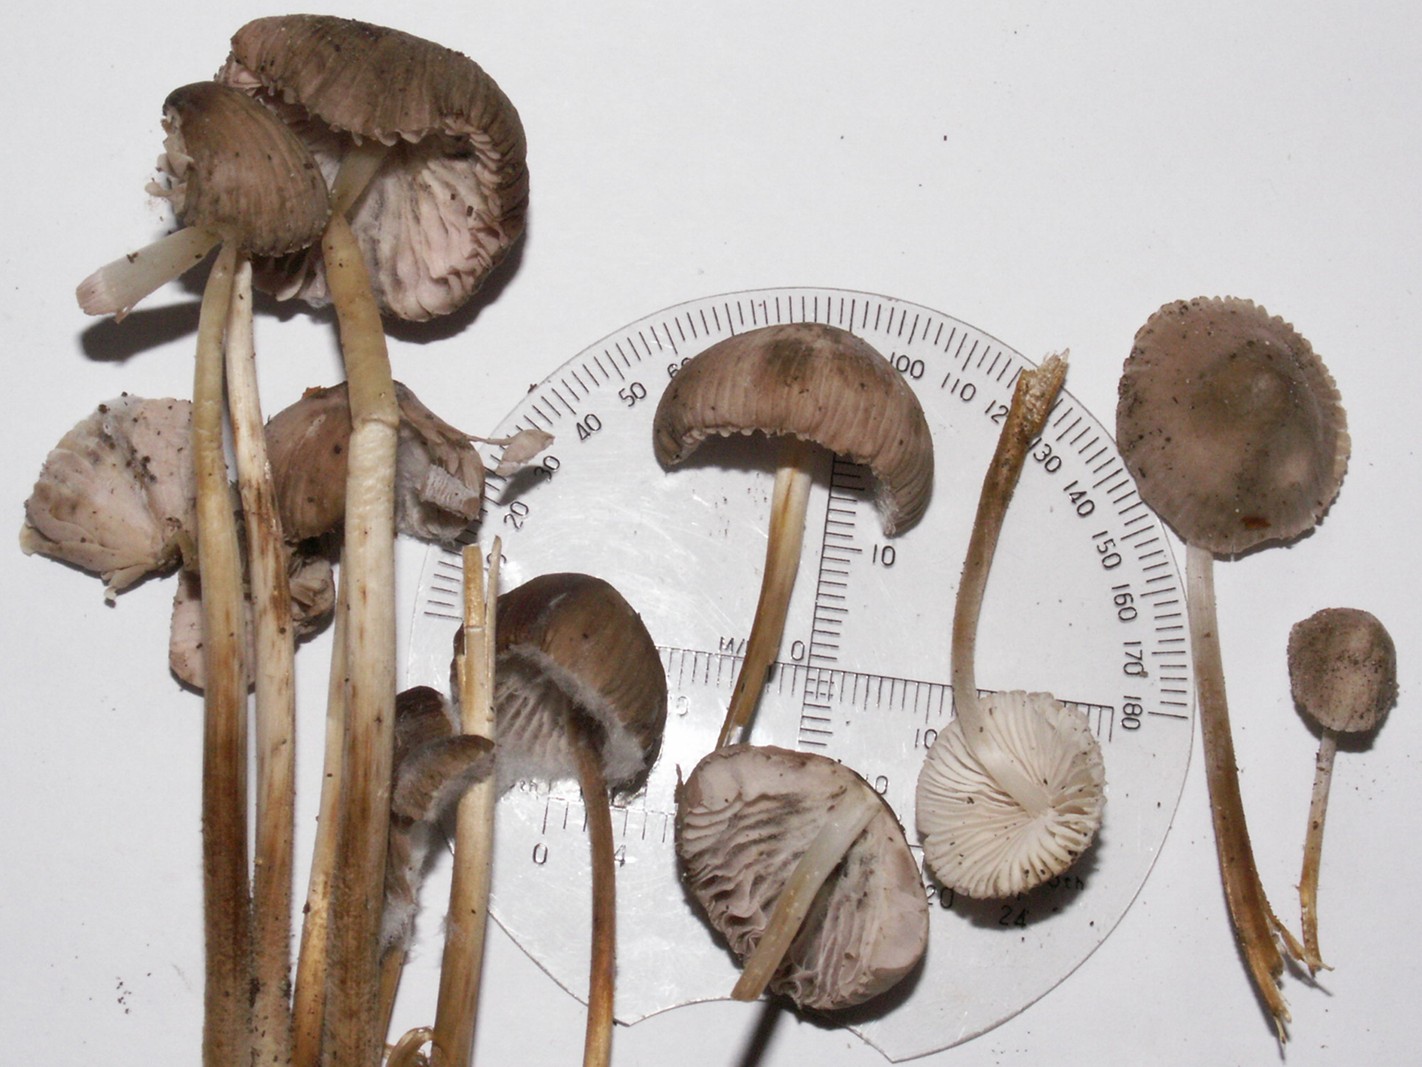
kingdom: Fungi
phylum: Basidiomycota
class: Agaricomycetes
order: Agaricales
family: Mycenaceae
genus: Mycena
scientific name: Mycena inclinata
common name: nikkende huesvamp
